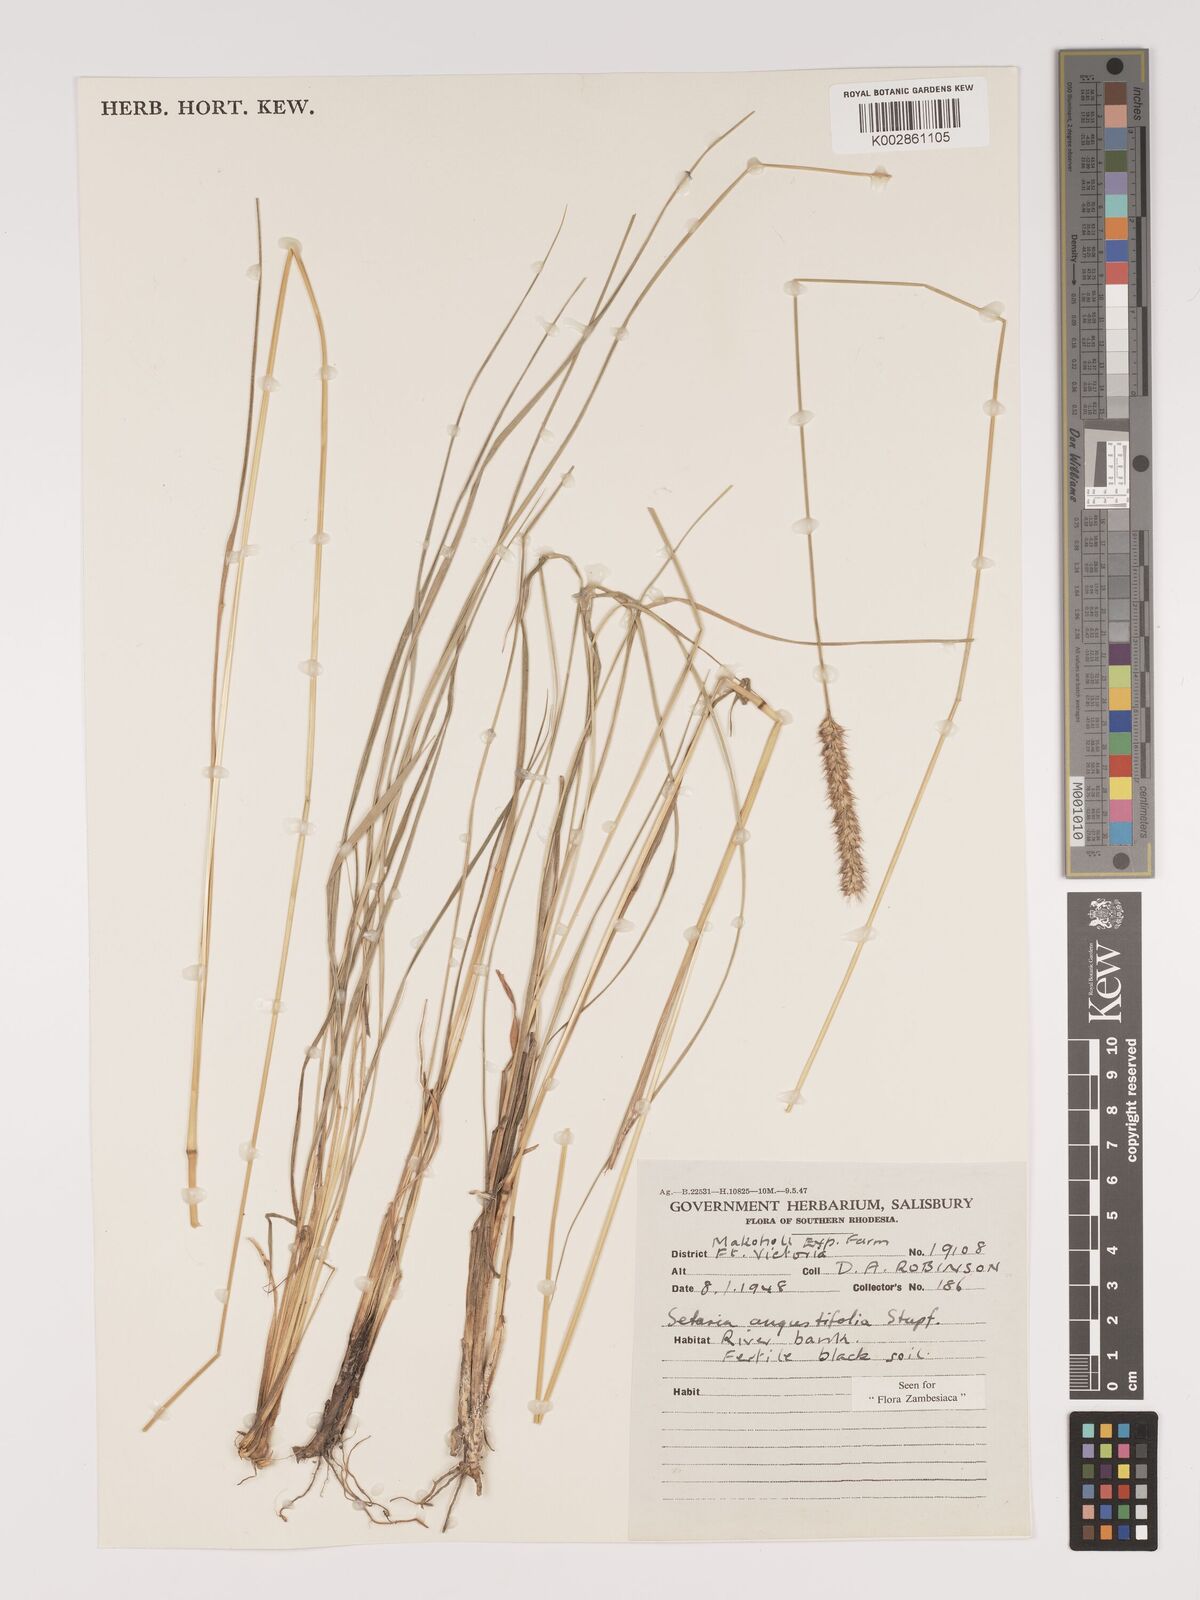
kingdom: Plantae
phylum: Tracheophyta
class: Liliopsida
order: Poales
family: Poaceae
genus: Setaria
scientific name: Setaria sphacelata
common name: African bristlegrass
